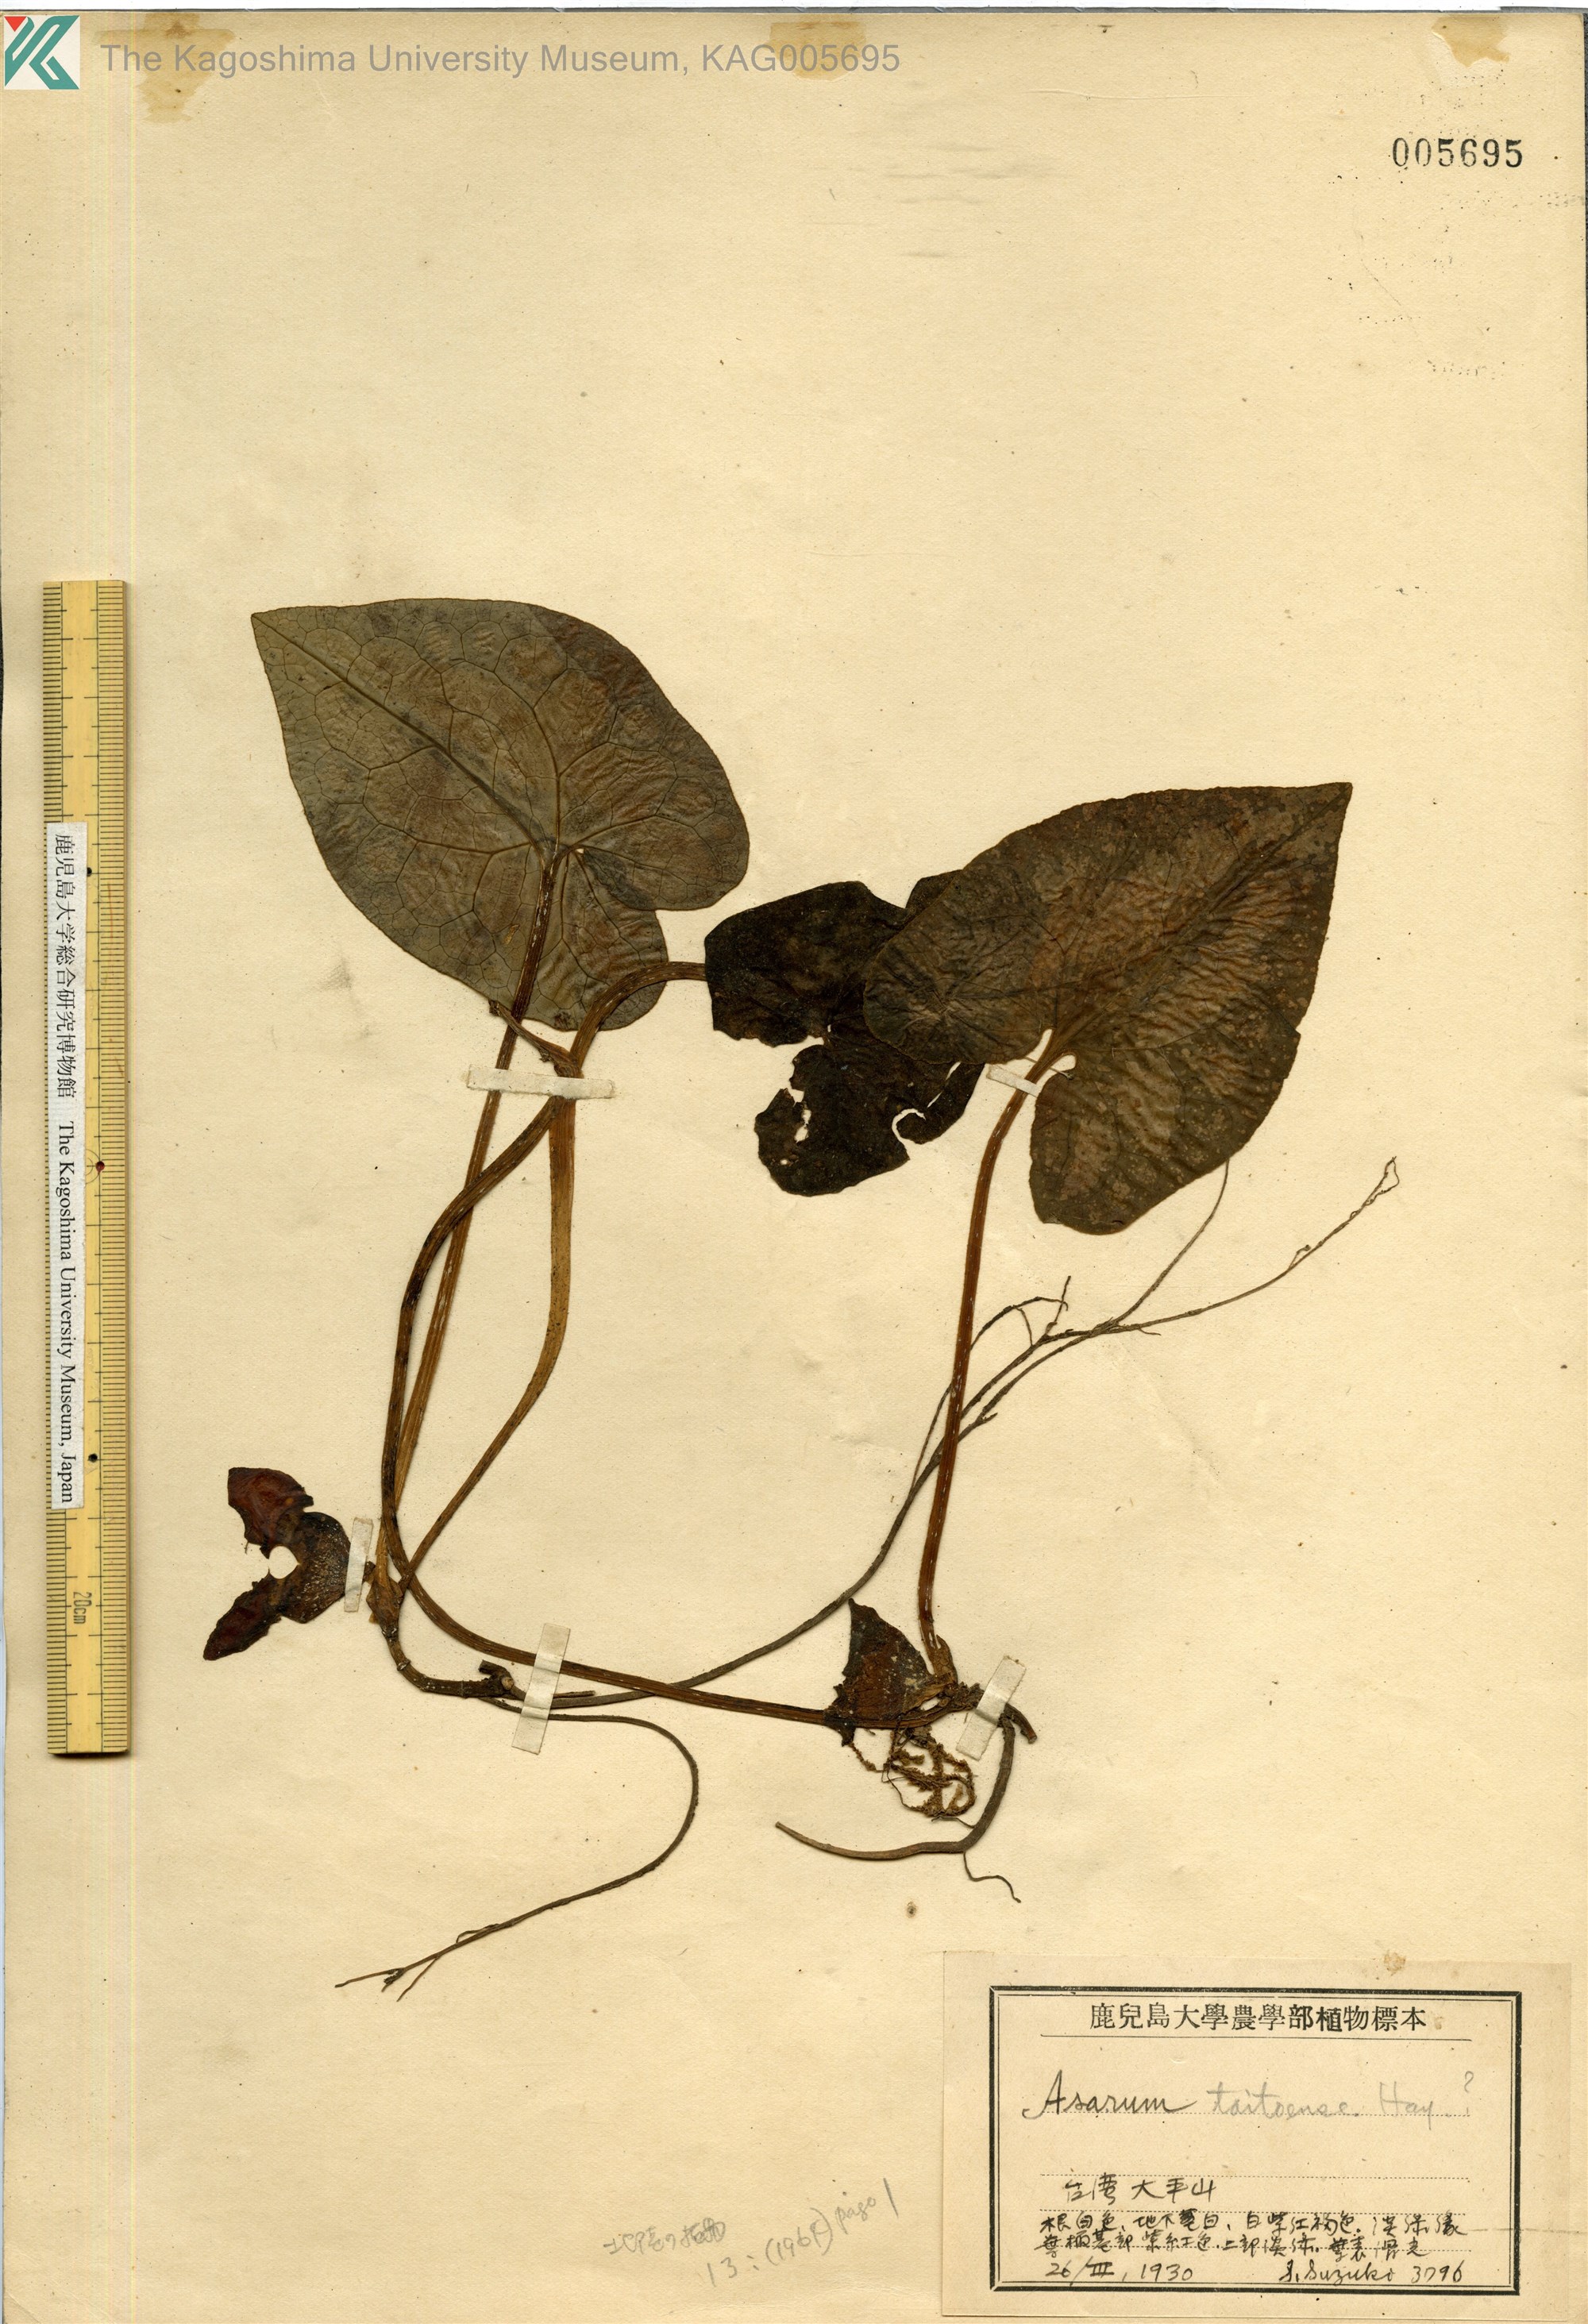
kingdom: Plantae
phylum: Tracheophyta
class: Magnoliopsida
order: Piperales
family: Aristolochiaceae
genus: Asarum
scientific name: Asarum macranthum
